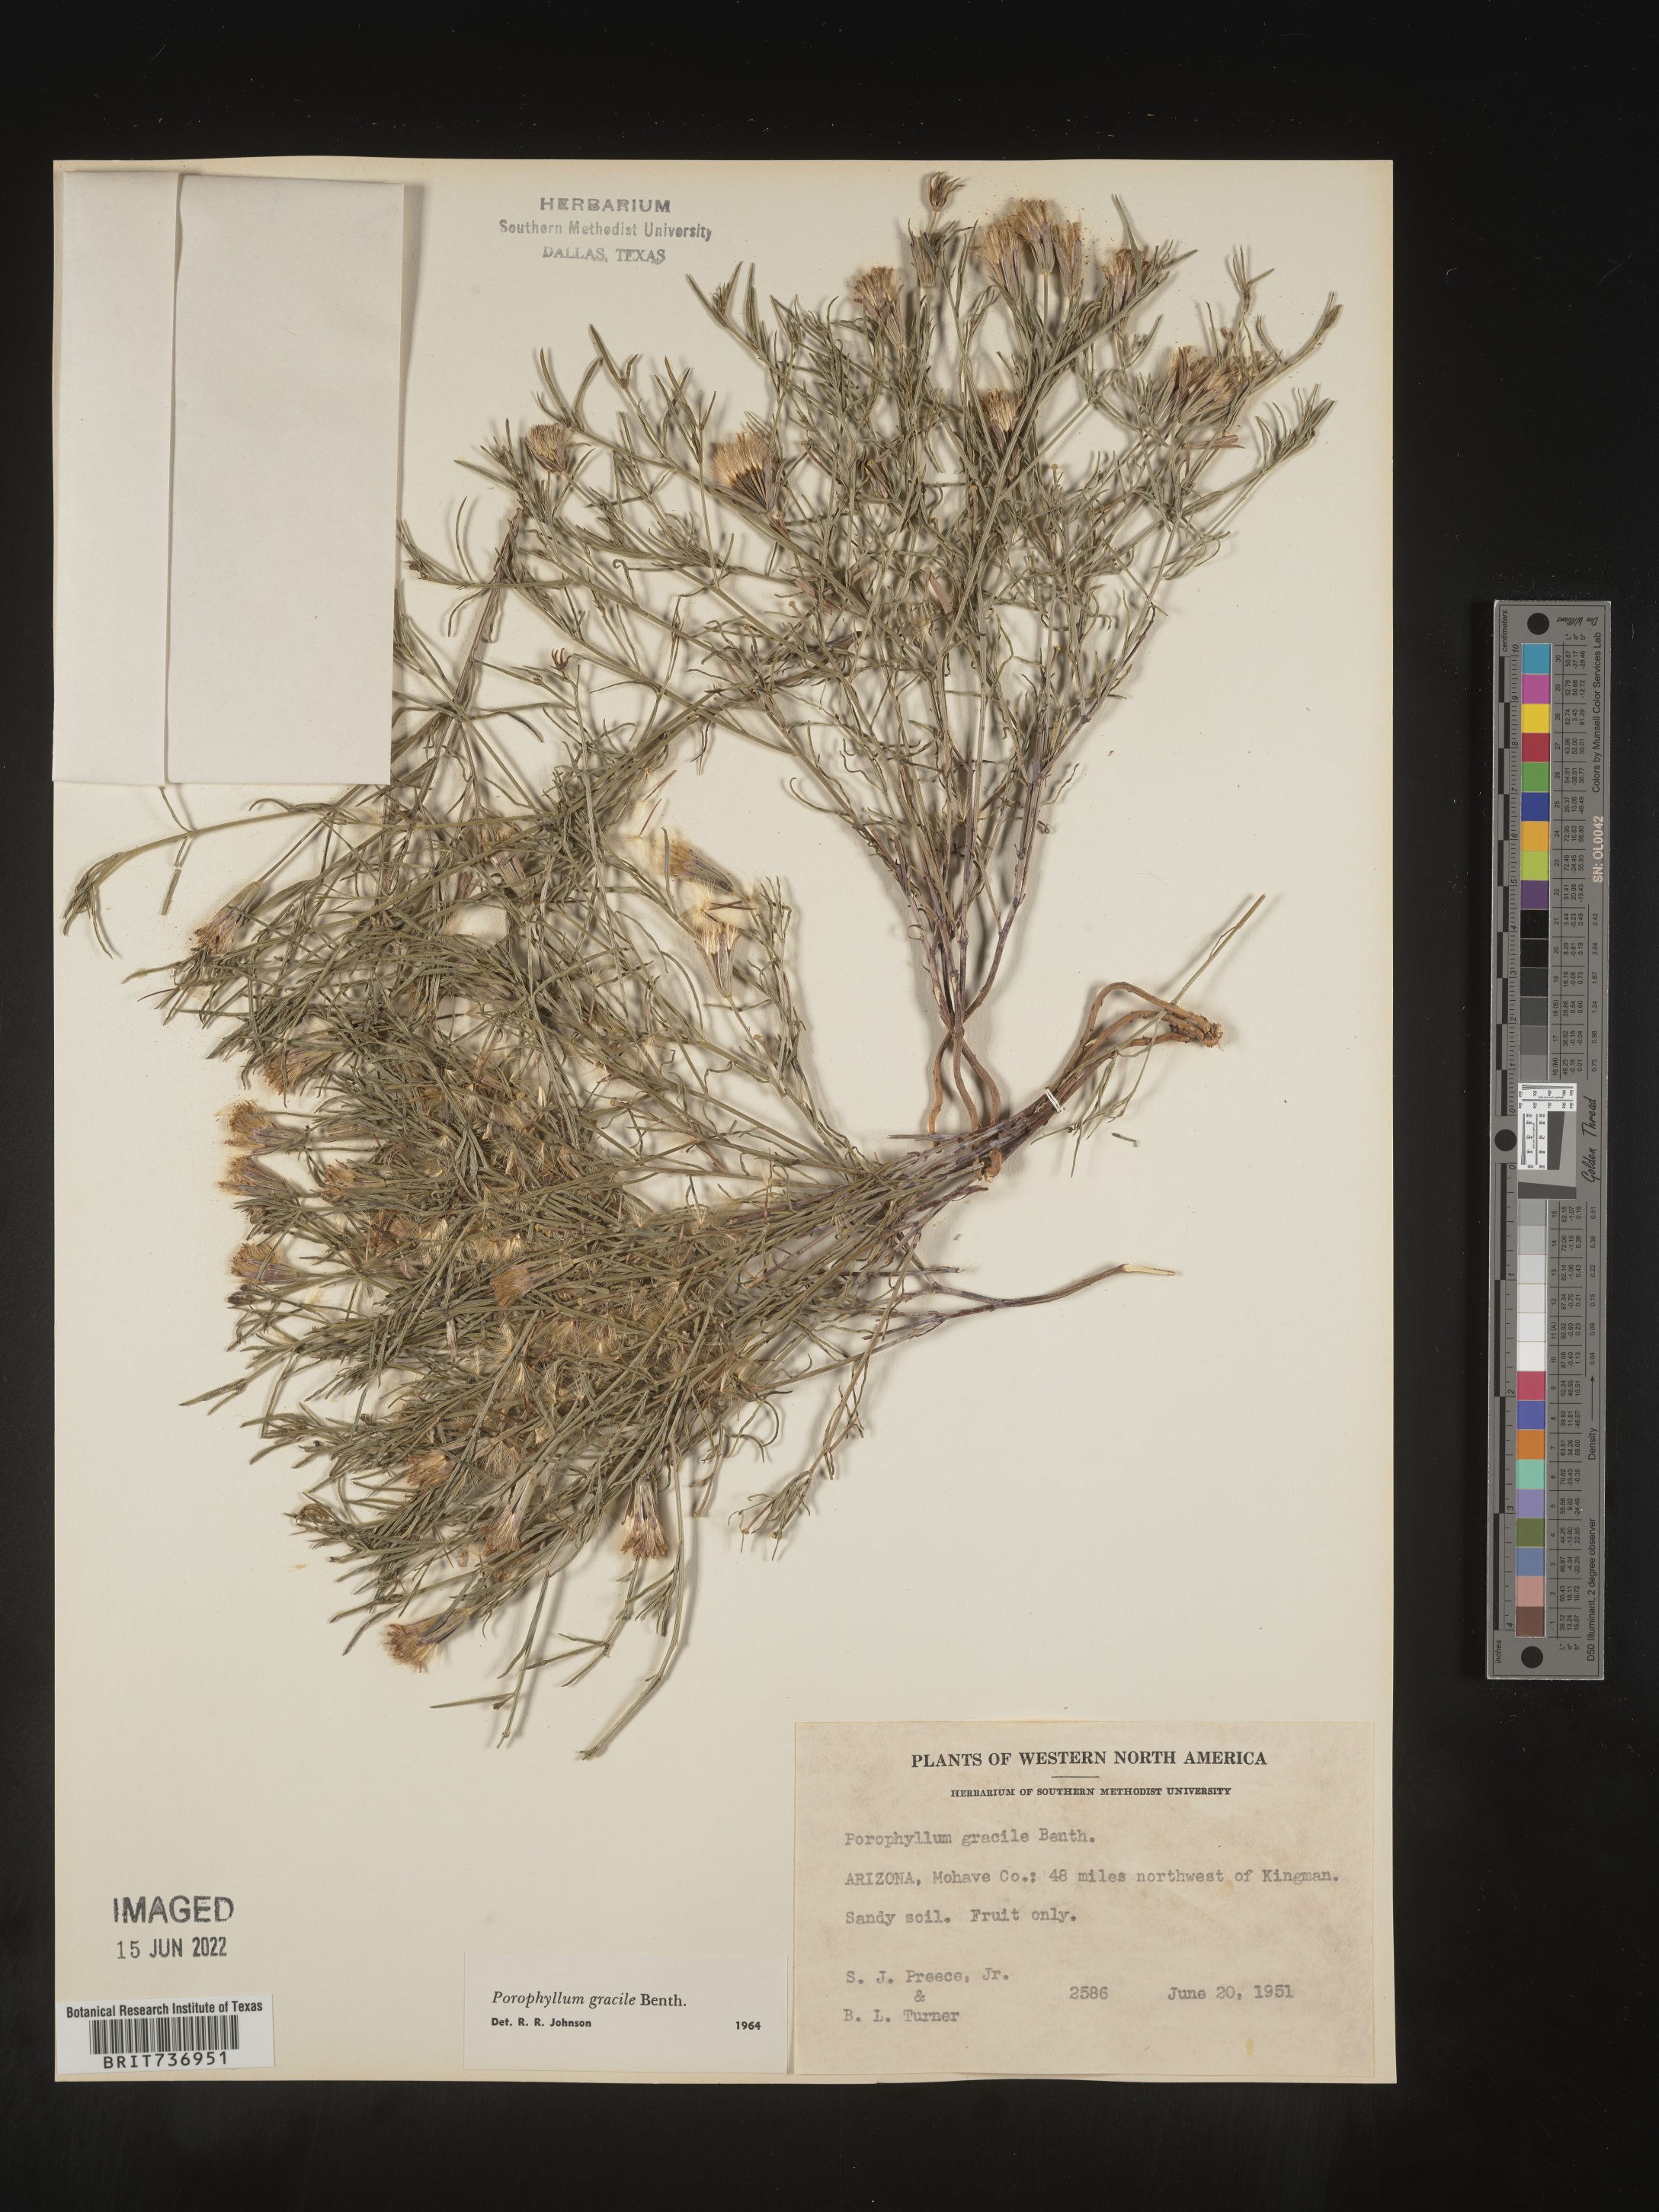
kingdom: Plantae
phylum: Tracheophyta
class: Magnoliopsida
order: Asterales
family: Asteraceae
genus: Porophyllum
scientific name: Porophyllum
